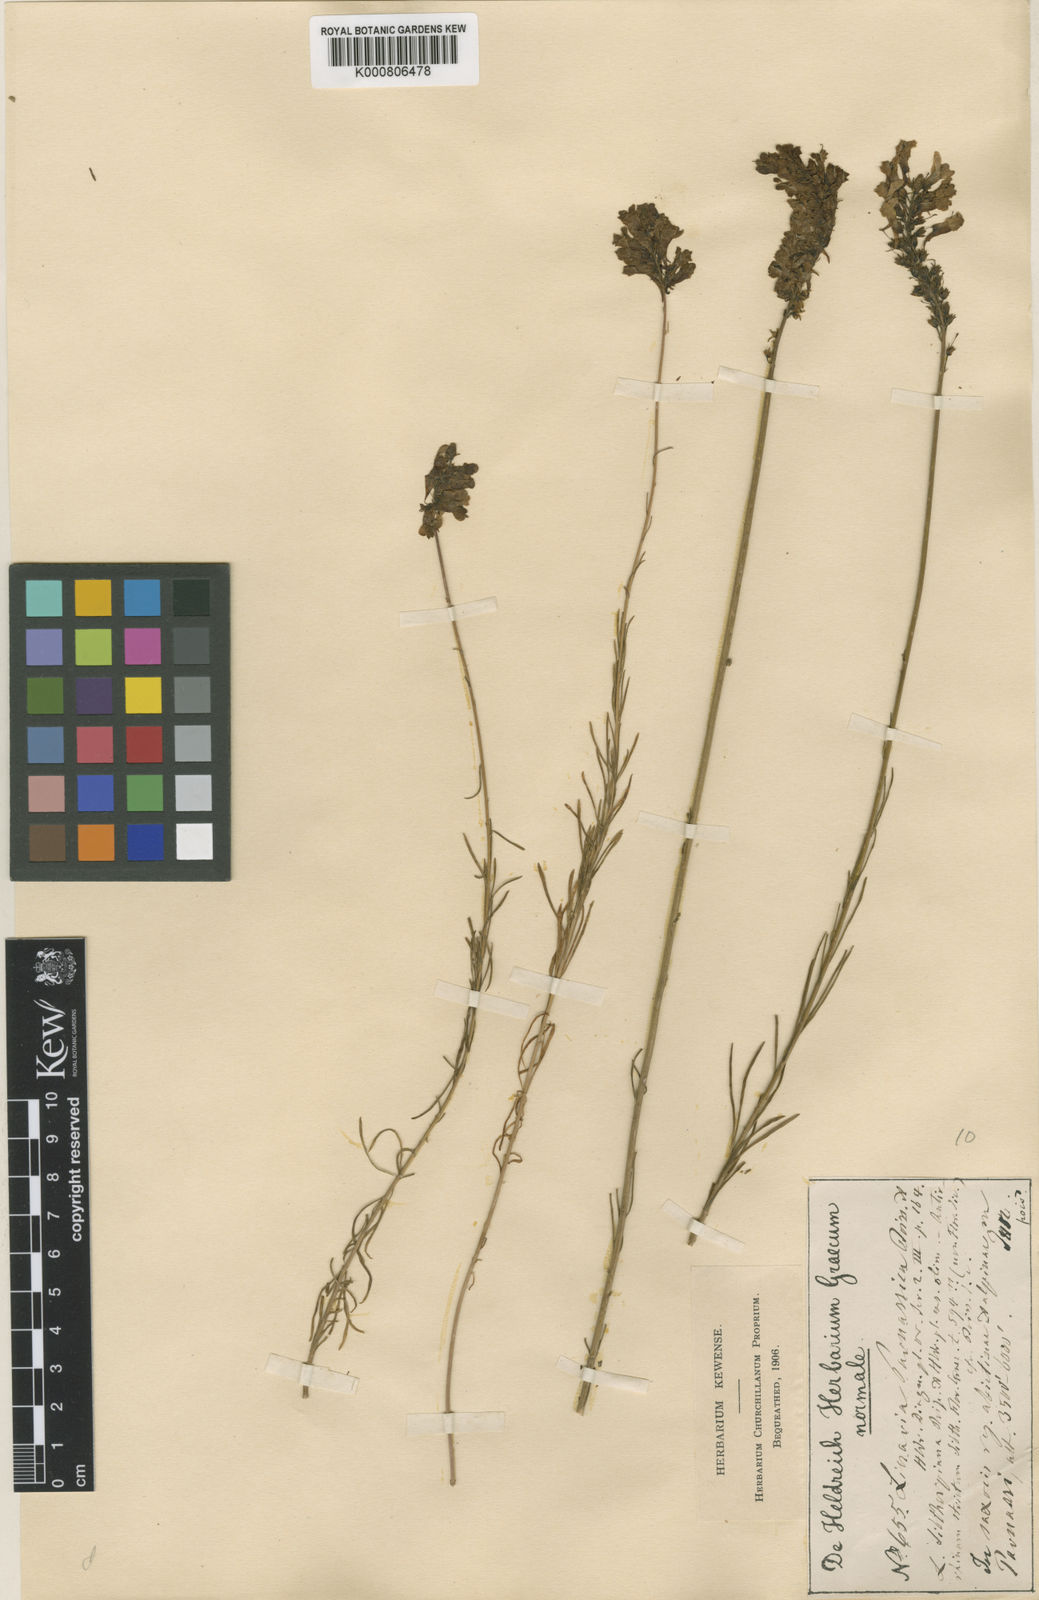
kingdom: Plantae
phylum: Tracheophyta
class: Magnoliopsida
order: Lamiales
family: Plantaginaceae
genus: Linaria
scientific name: Linaria peloponnesiaca
